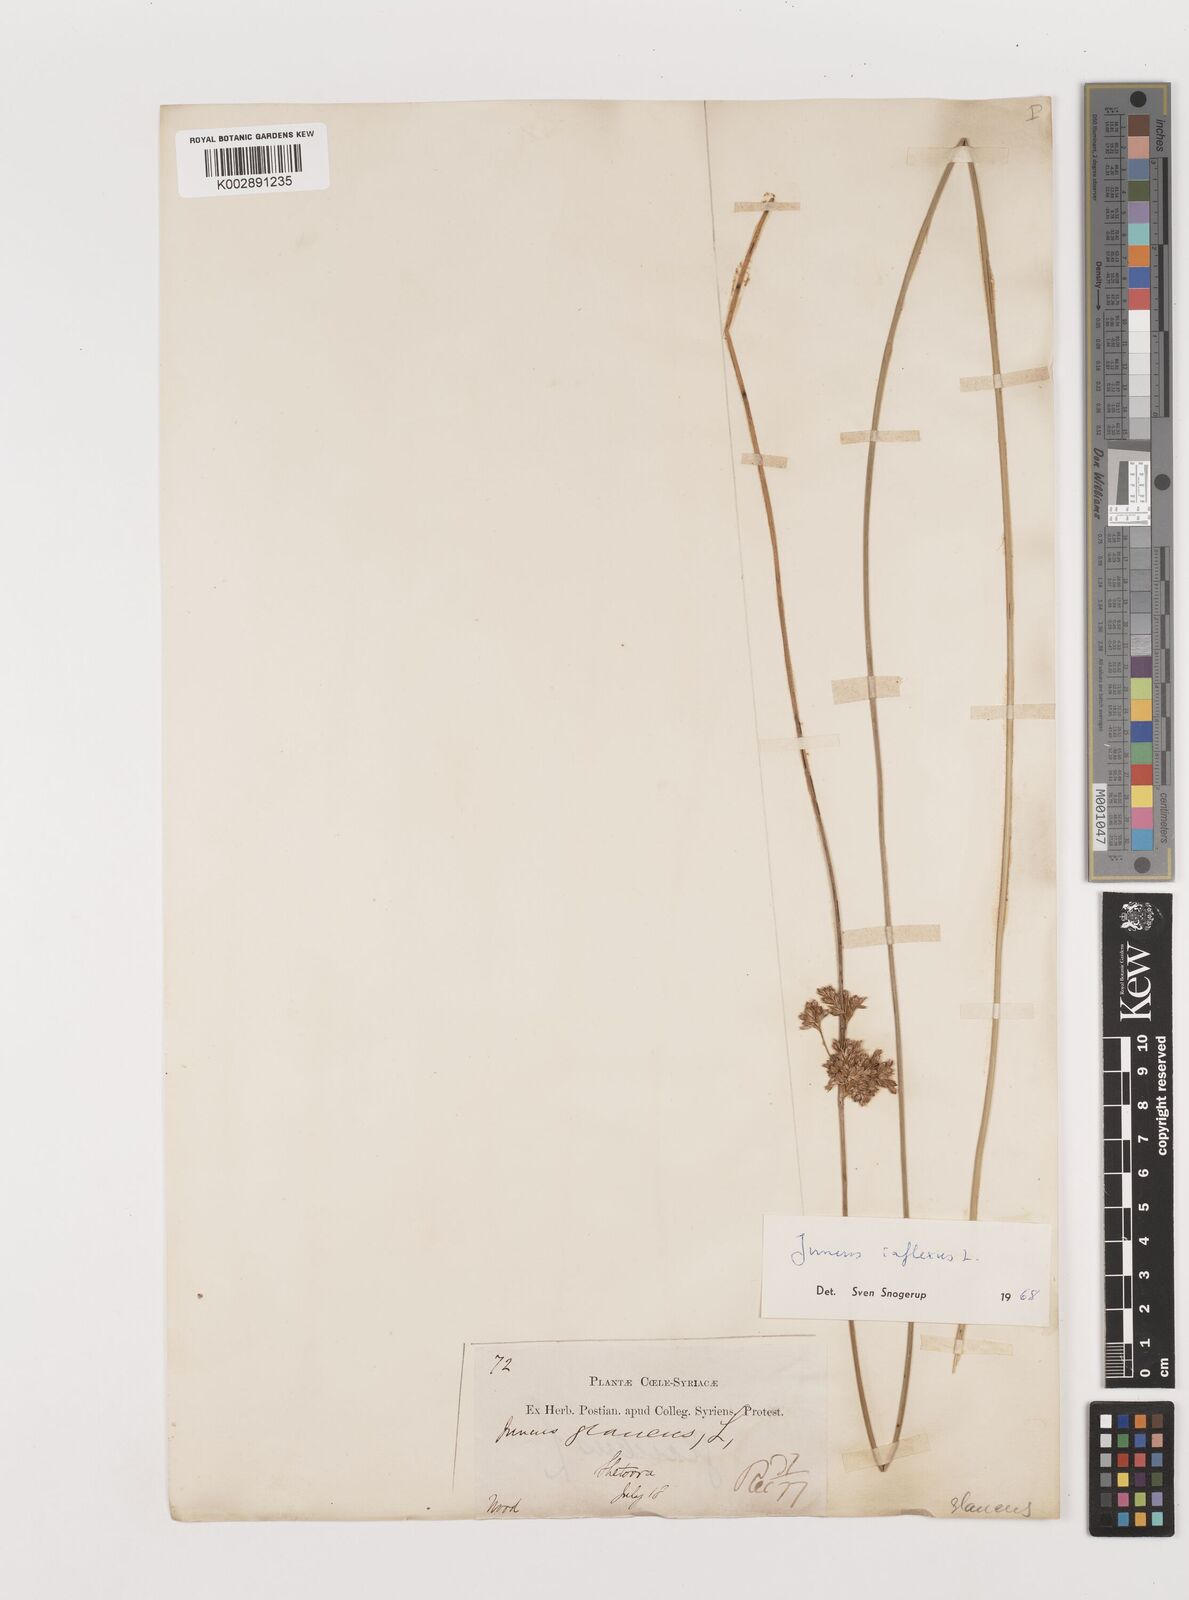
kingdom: Plantae
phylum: Tracheophyta
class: Liliopsida
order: Poales
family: Juncaceae
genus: Juncus
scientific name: Juncus inflexus
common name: Hard rush
